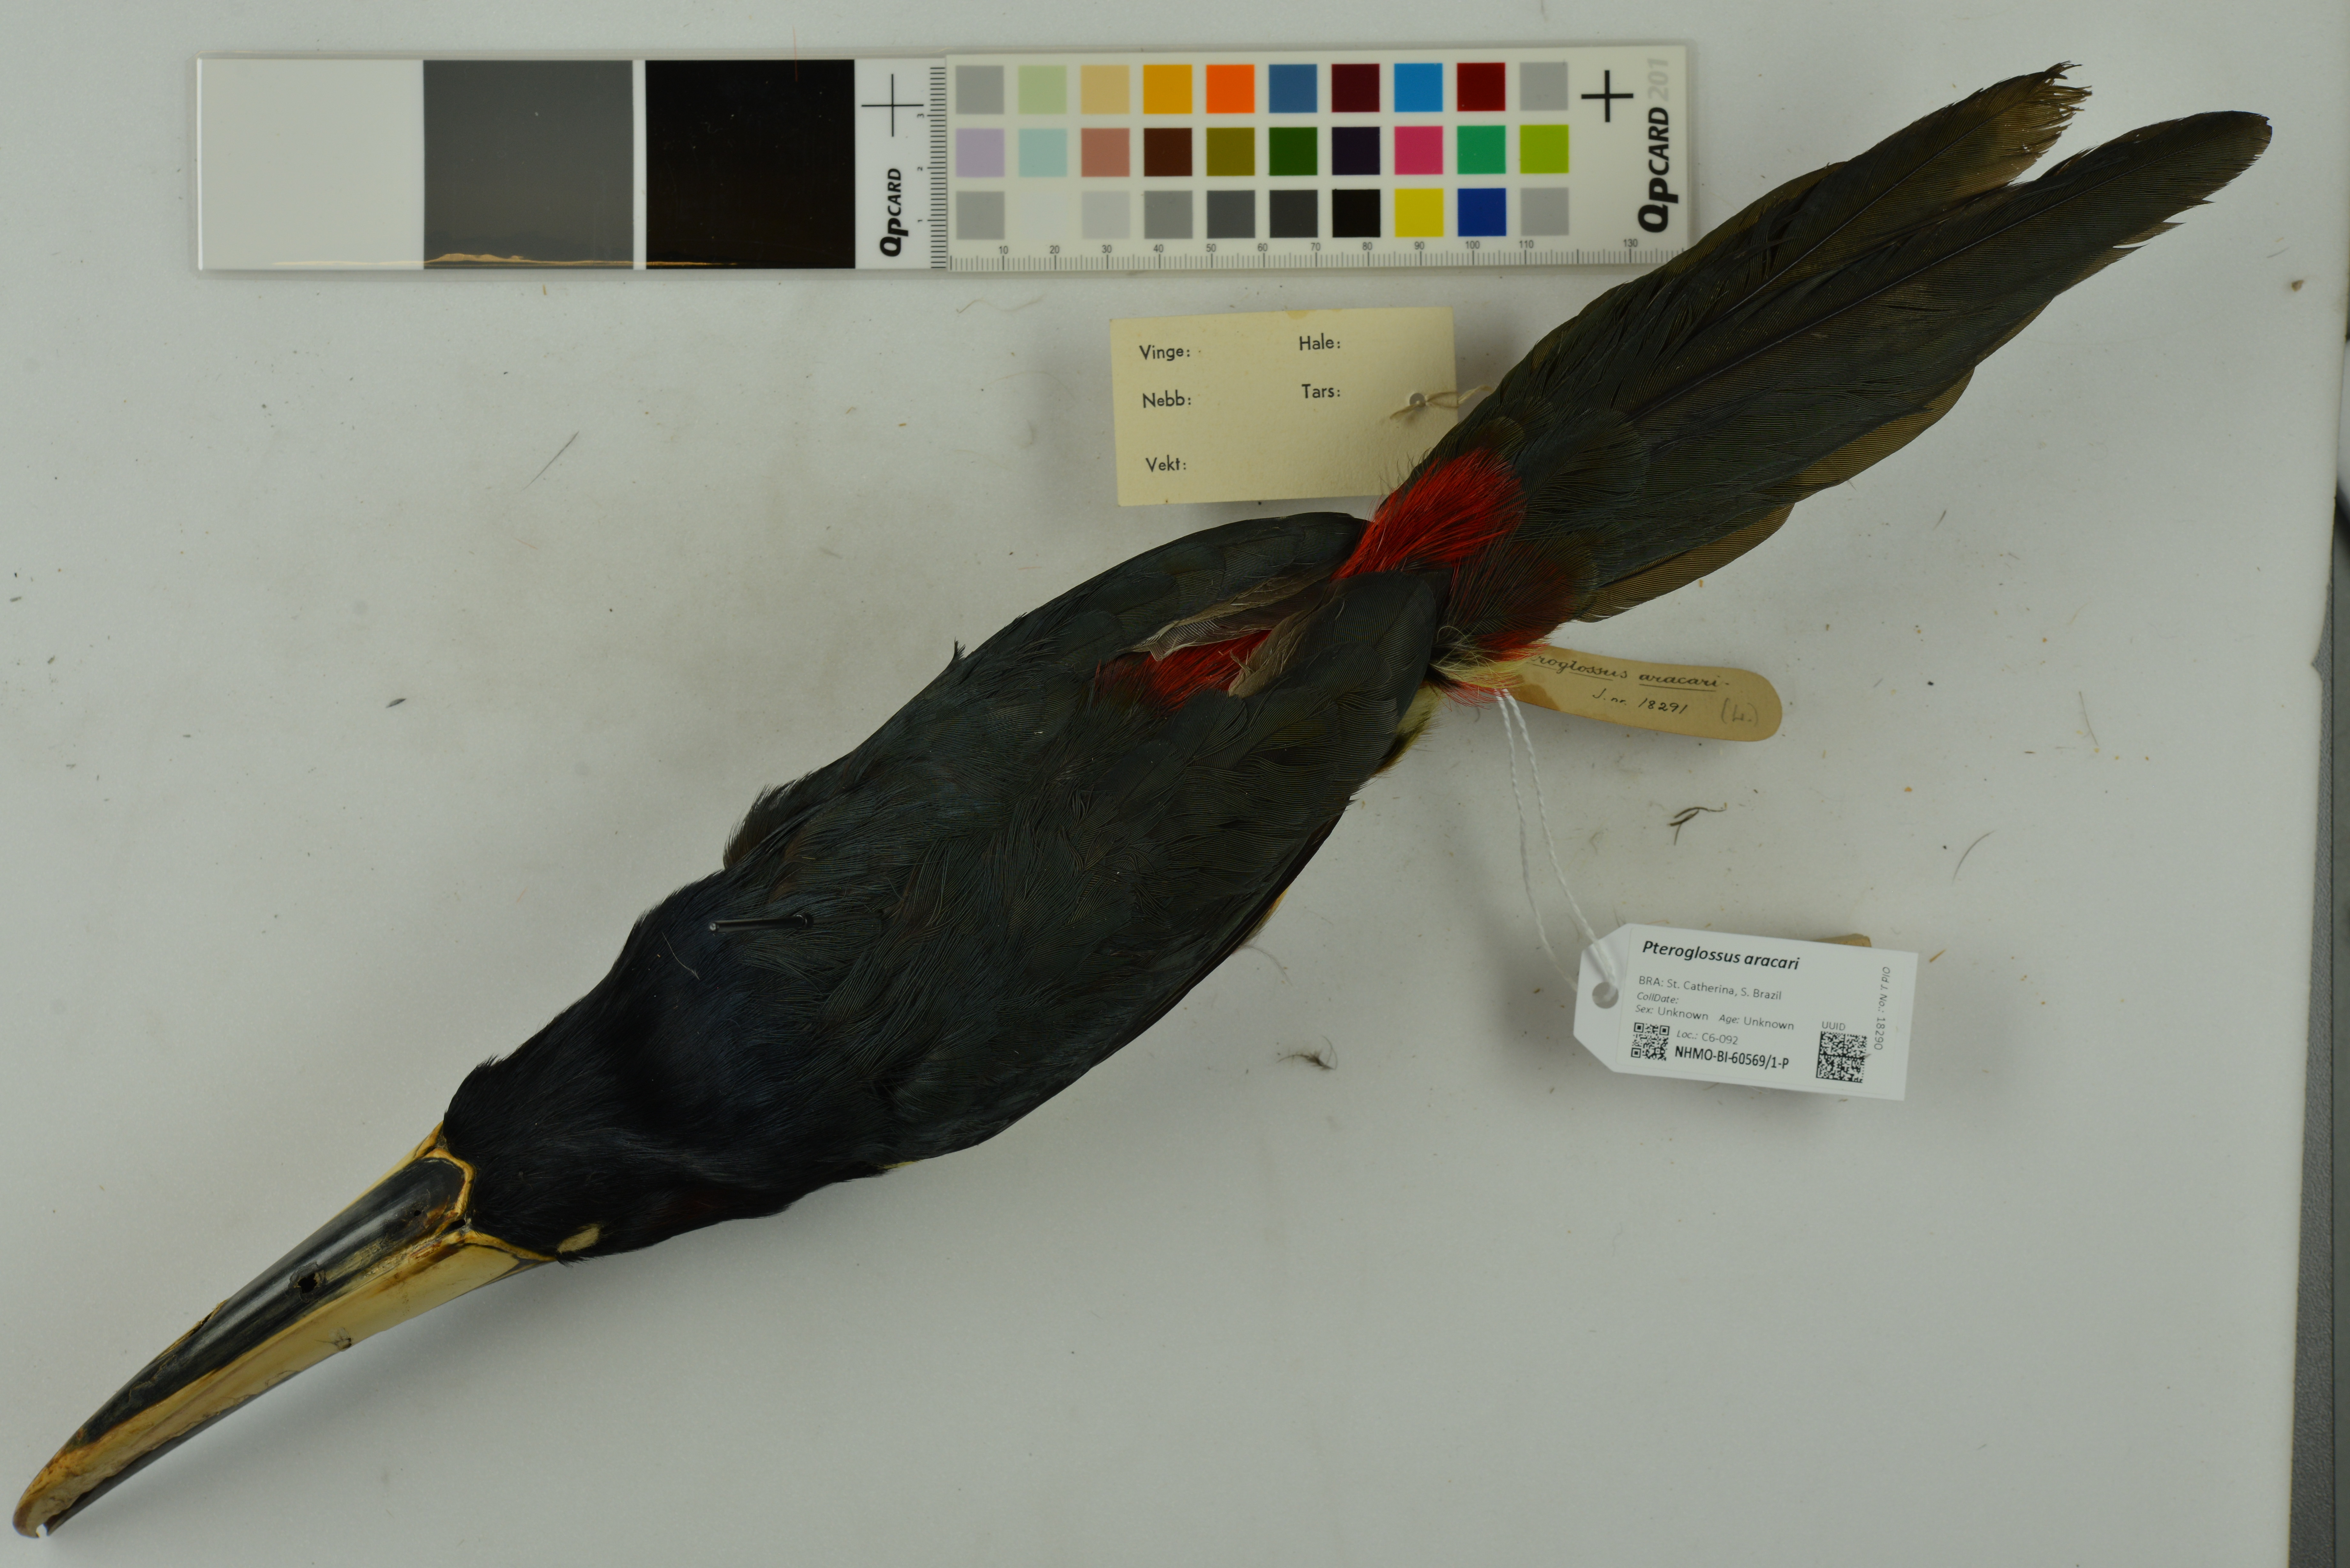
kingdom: Animalia
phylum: Chordata
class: Aves
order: Piciformes
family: Ramphastidae
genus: Pteroglossus
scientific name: Pteroglossus aracari
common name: Black-necked aracari
